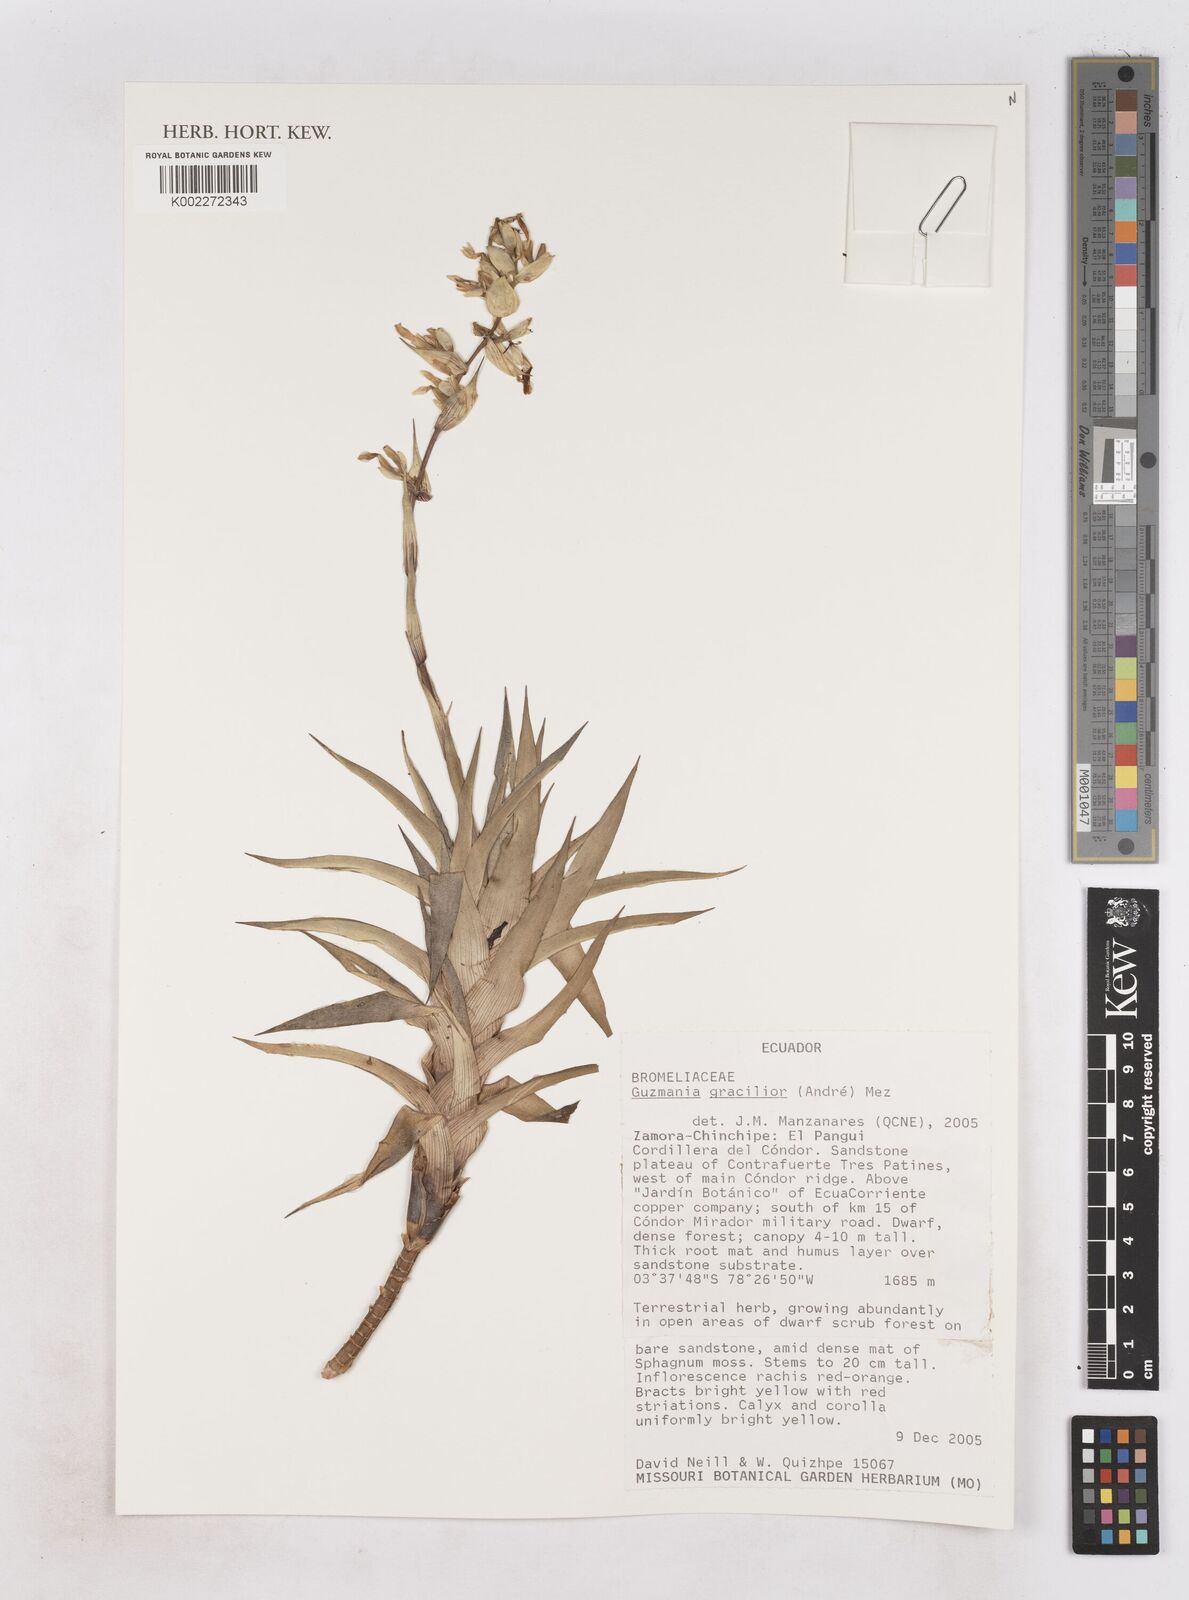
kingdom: Plantae
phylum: Tracheophyta
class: Liliopsida
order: Poales
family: Bromeliaceae
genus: Guzmania
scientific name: Guzmania gracilior
